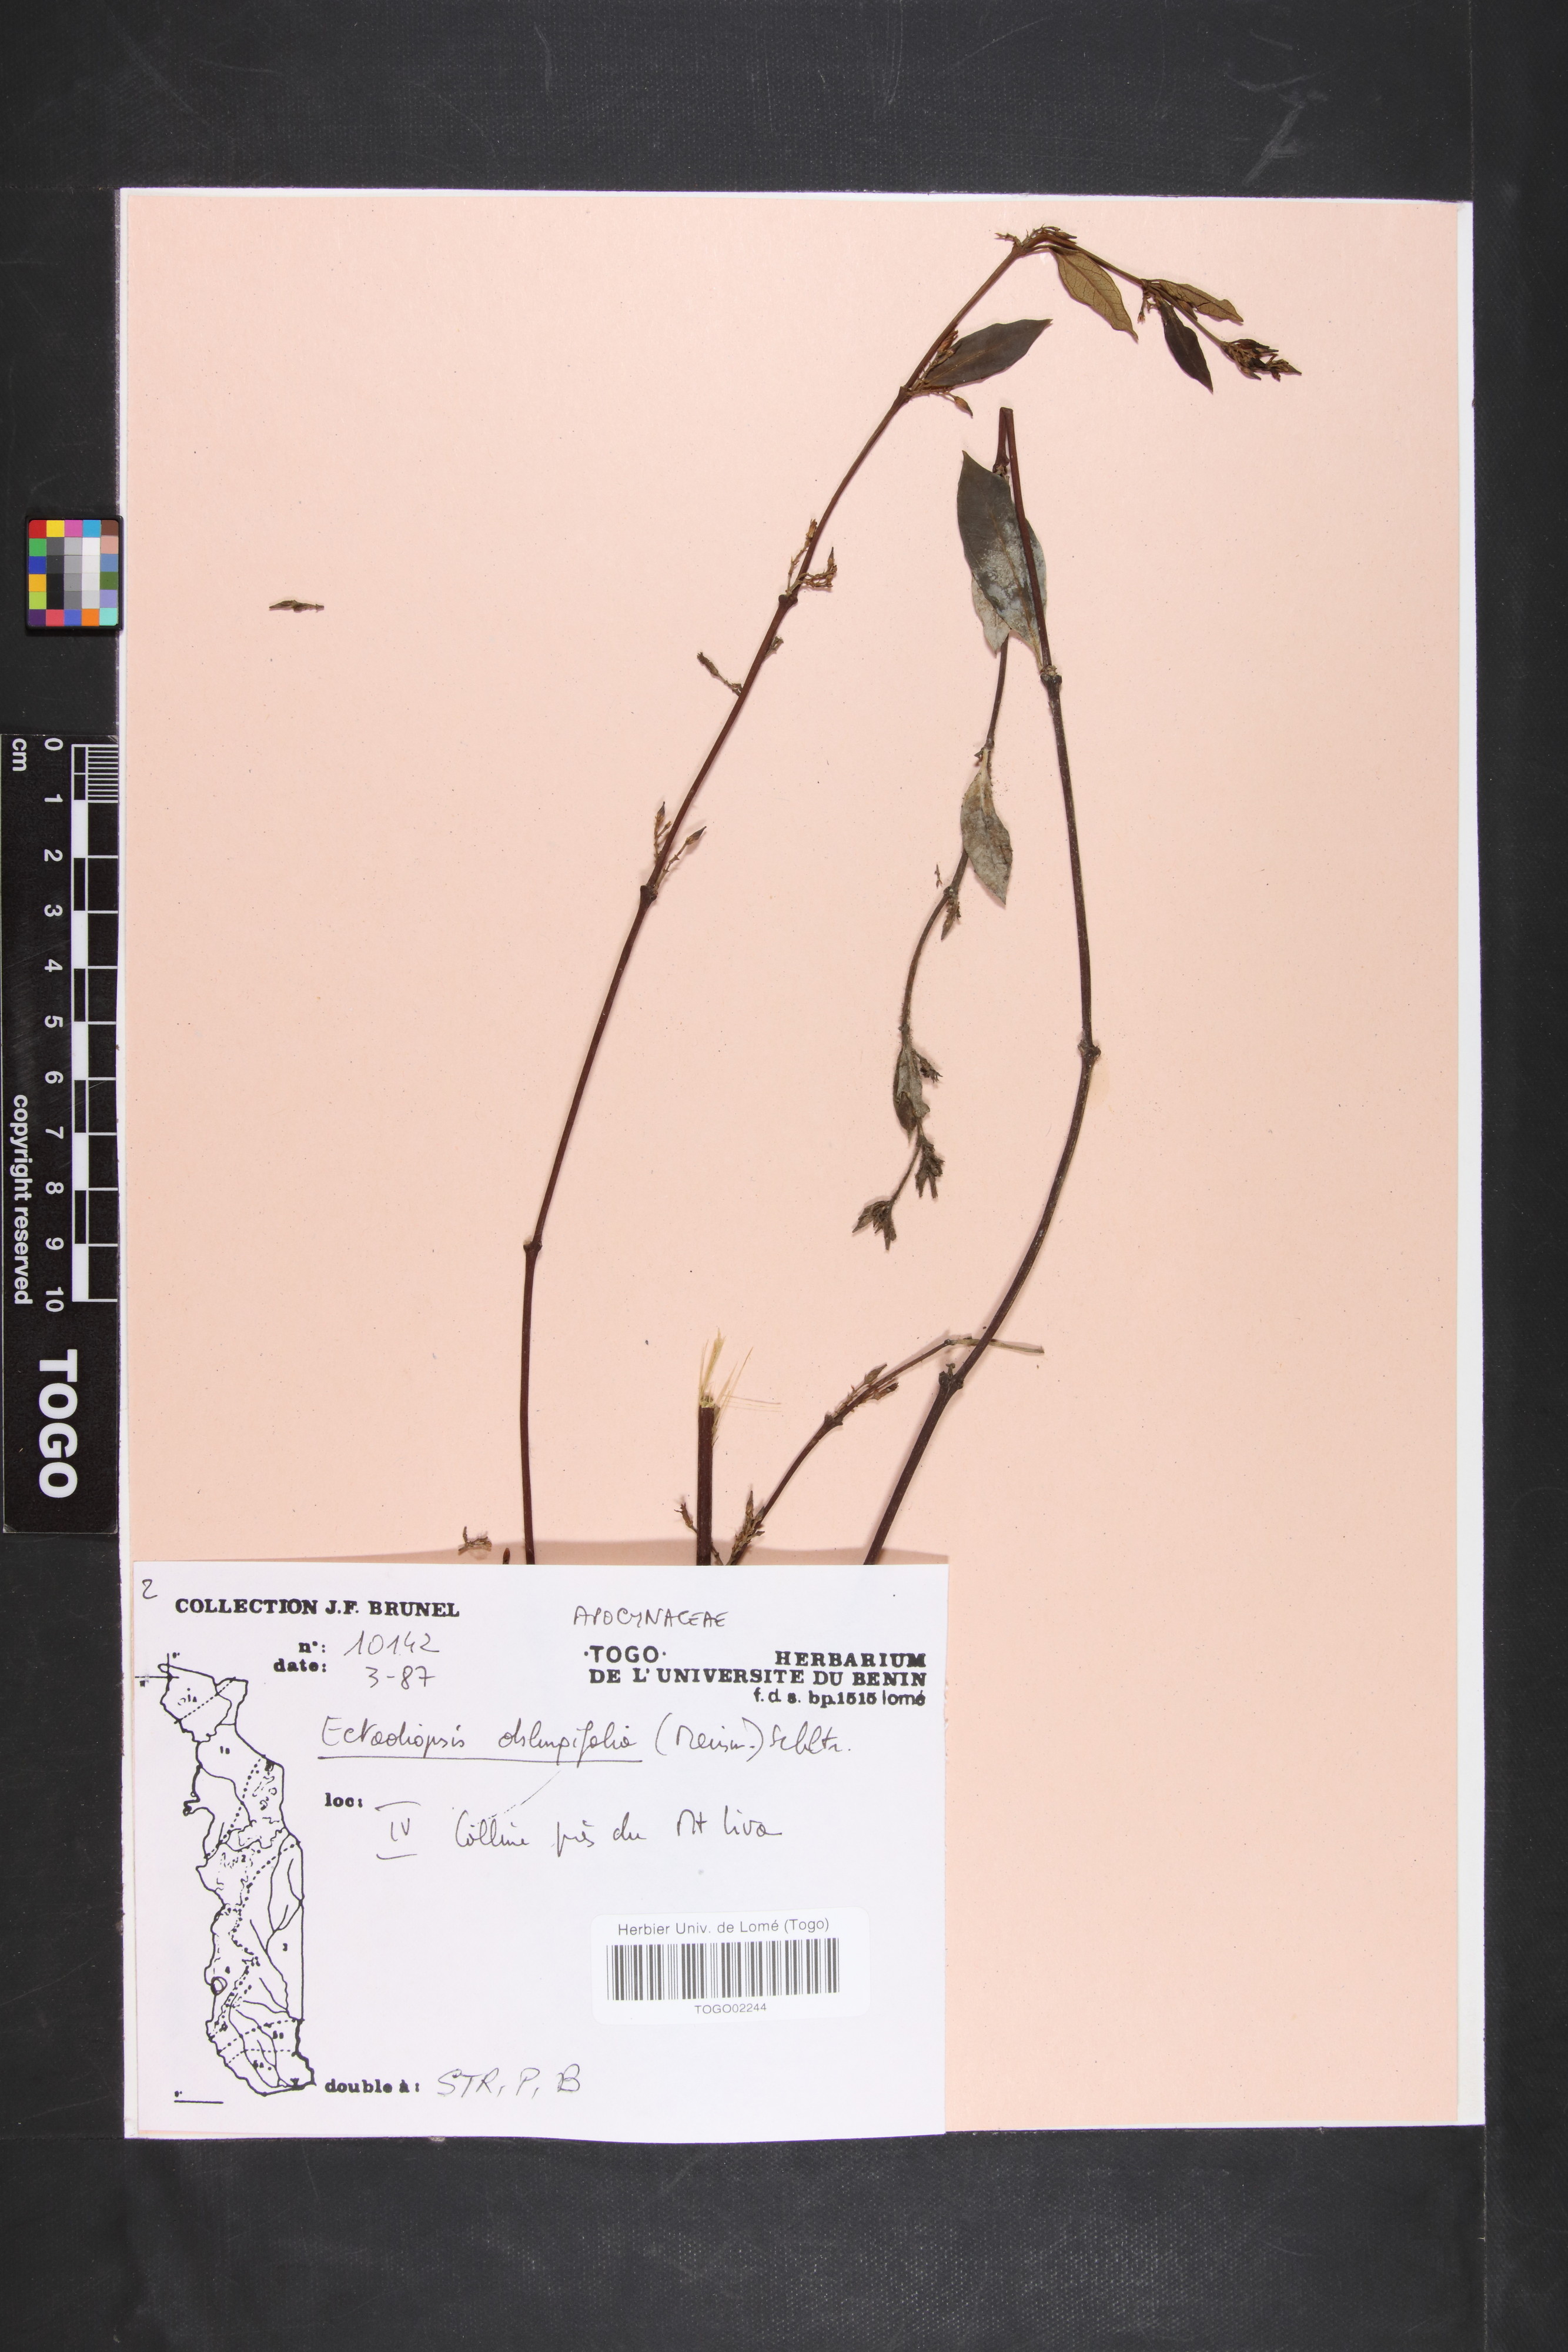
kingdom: Plantae
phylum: Tracheophyta
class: Magnoliopsida
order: Gentianales
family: Apocynaceae
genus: Cryptolepis
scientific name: Cryptolepis oblongifolia
